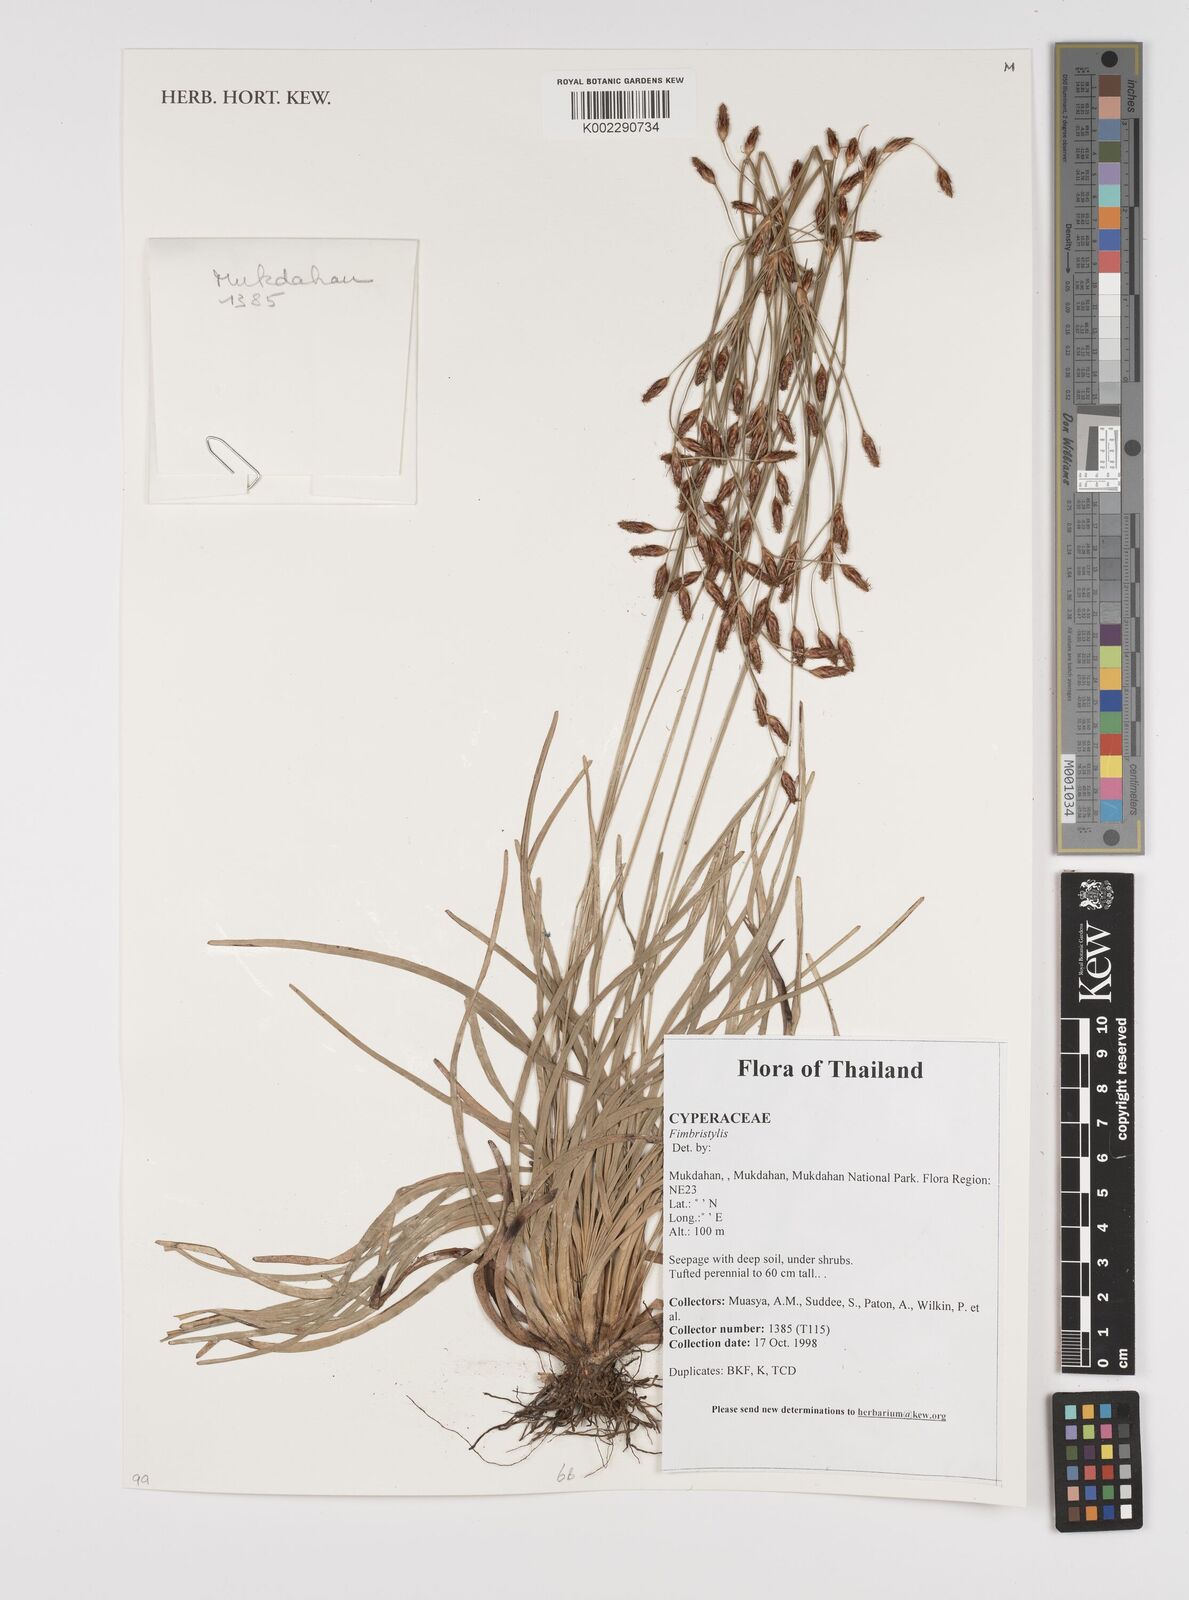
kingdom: Plantae
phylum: Tracheophyta
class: Liliopsida
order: Poales
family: Cyperaceae
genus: Fimbristylis
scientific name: Fimbristylis
